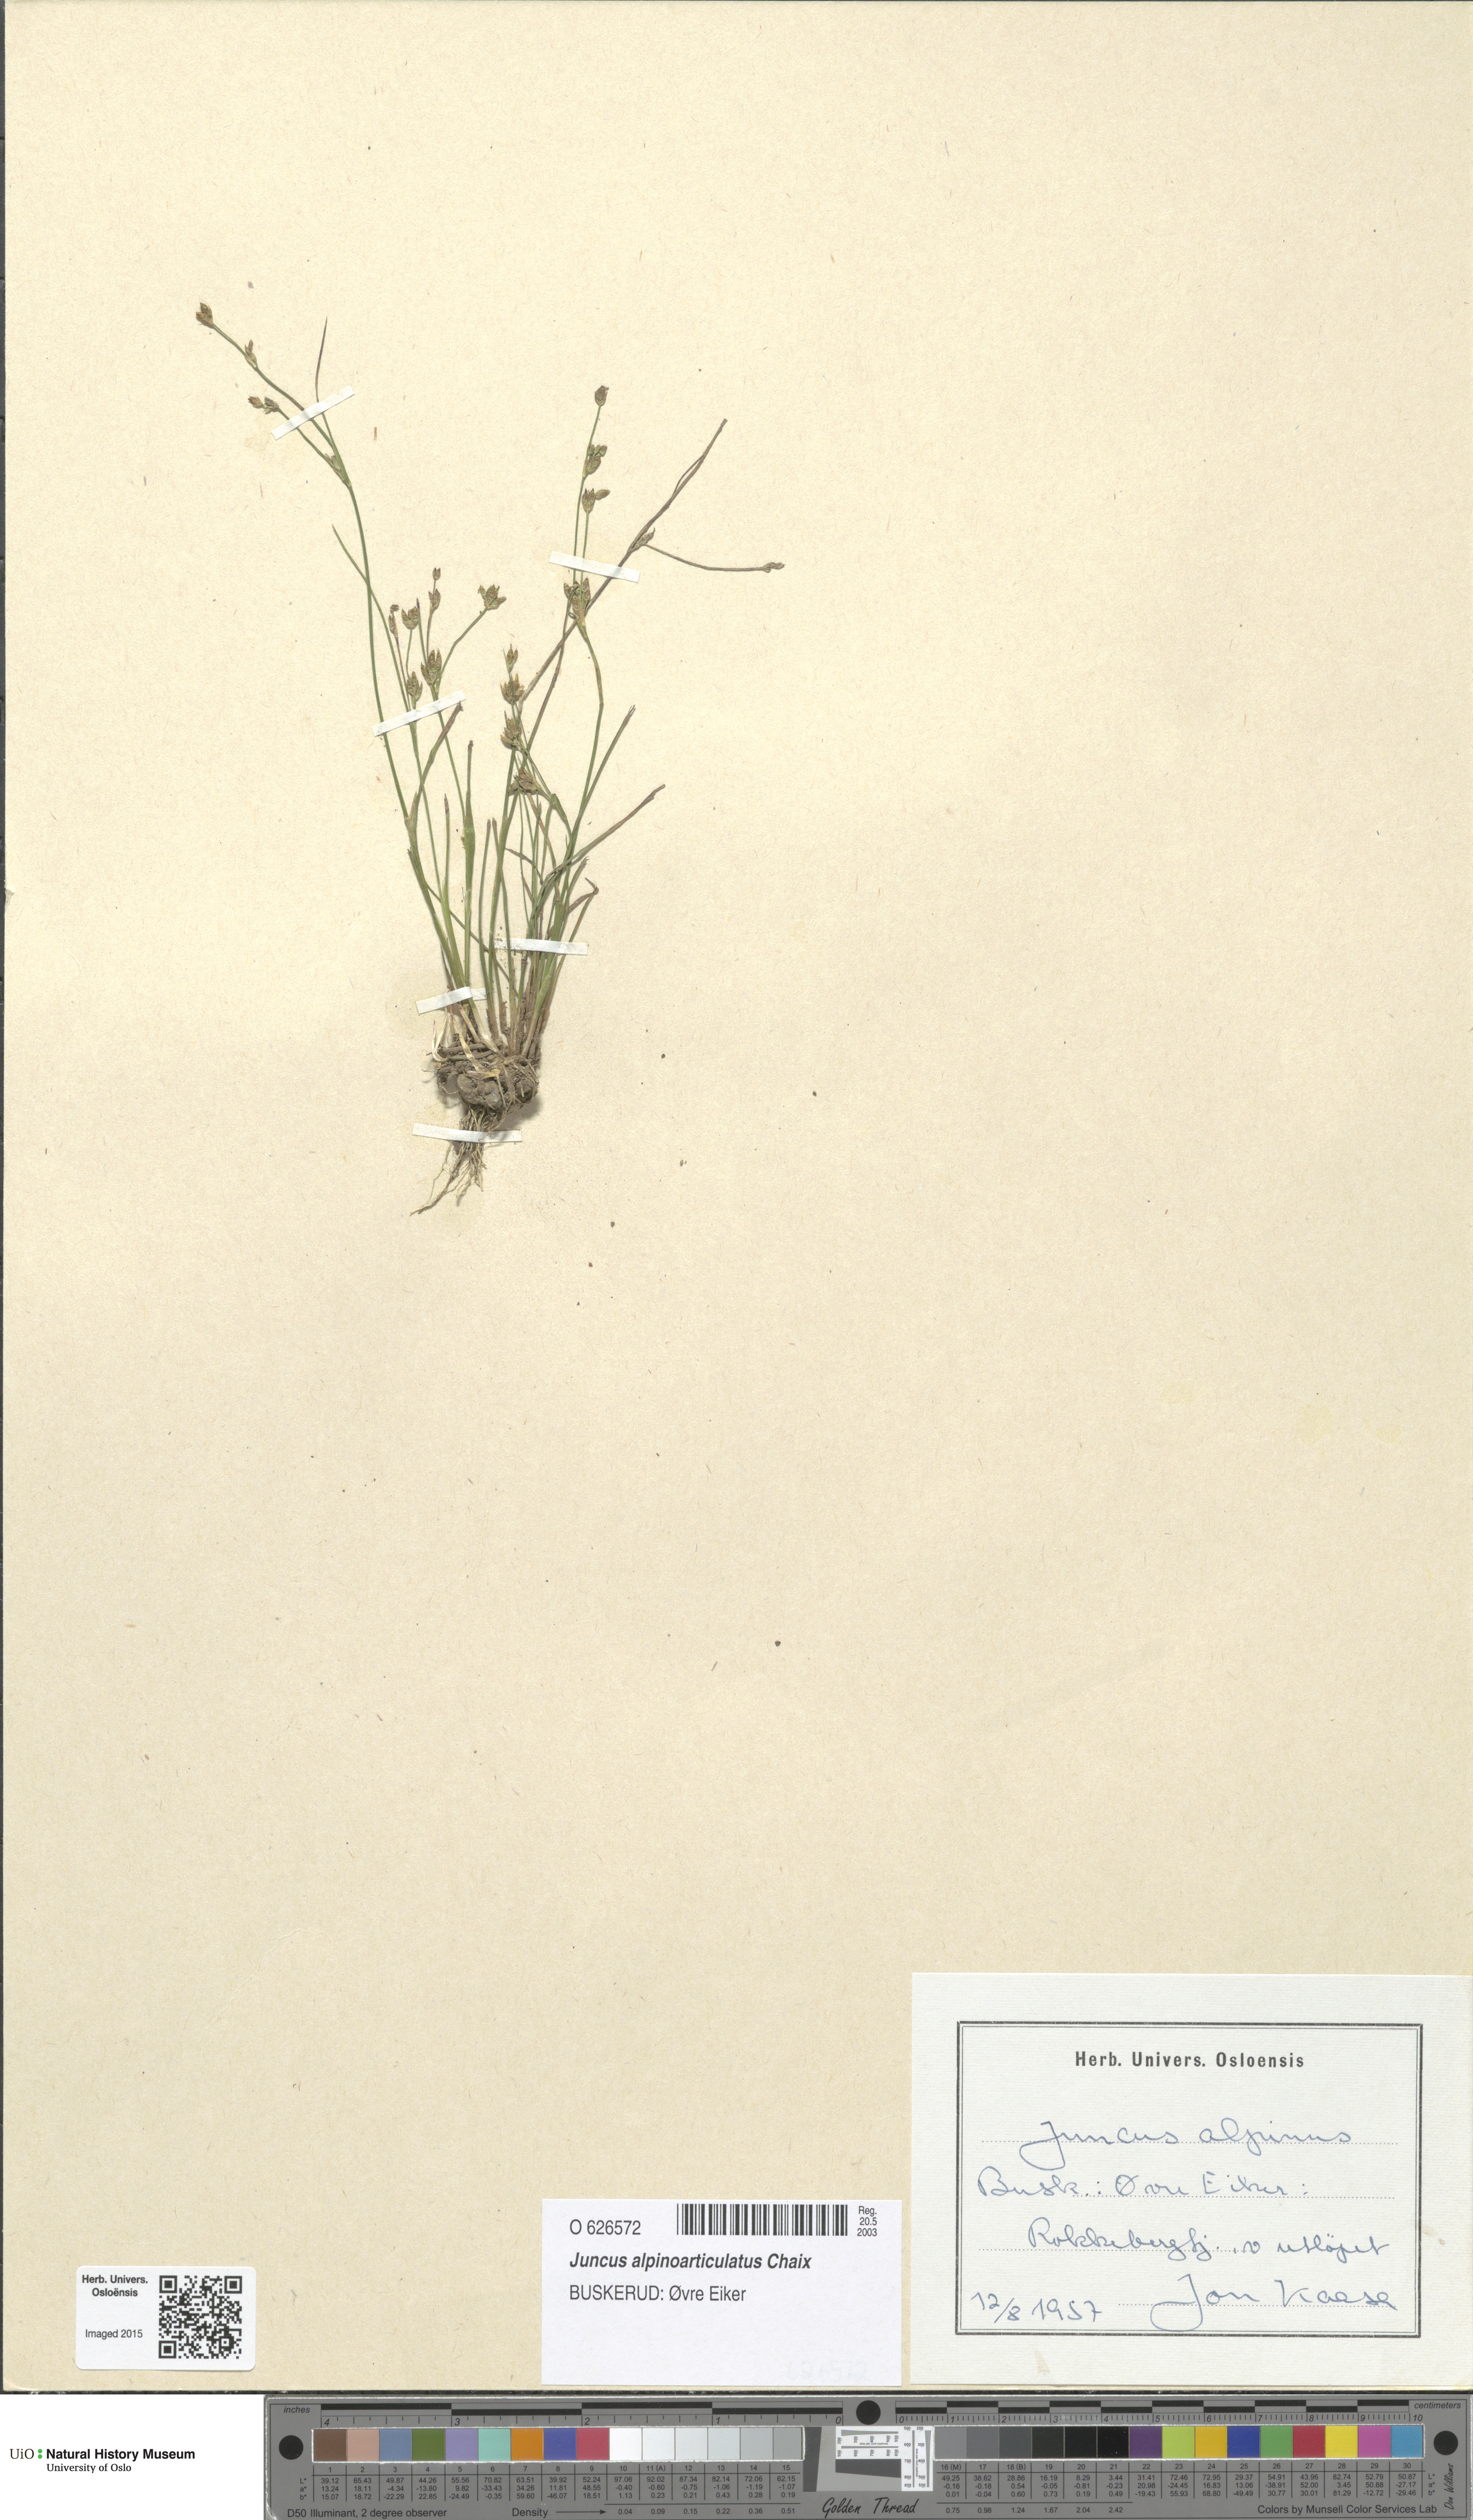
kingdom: Plantae
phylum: Tracheophyta
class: Liliopsida
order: Poales
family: Juncaceae
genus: Juncus
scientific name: Juncus alpinoarticulatus
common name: Alpine rush
